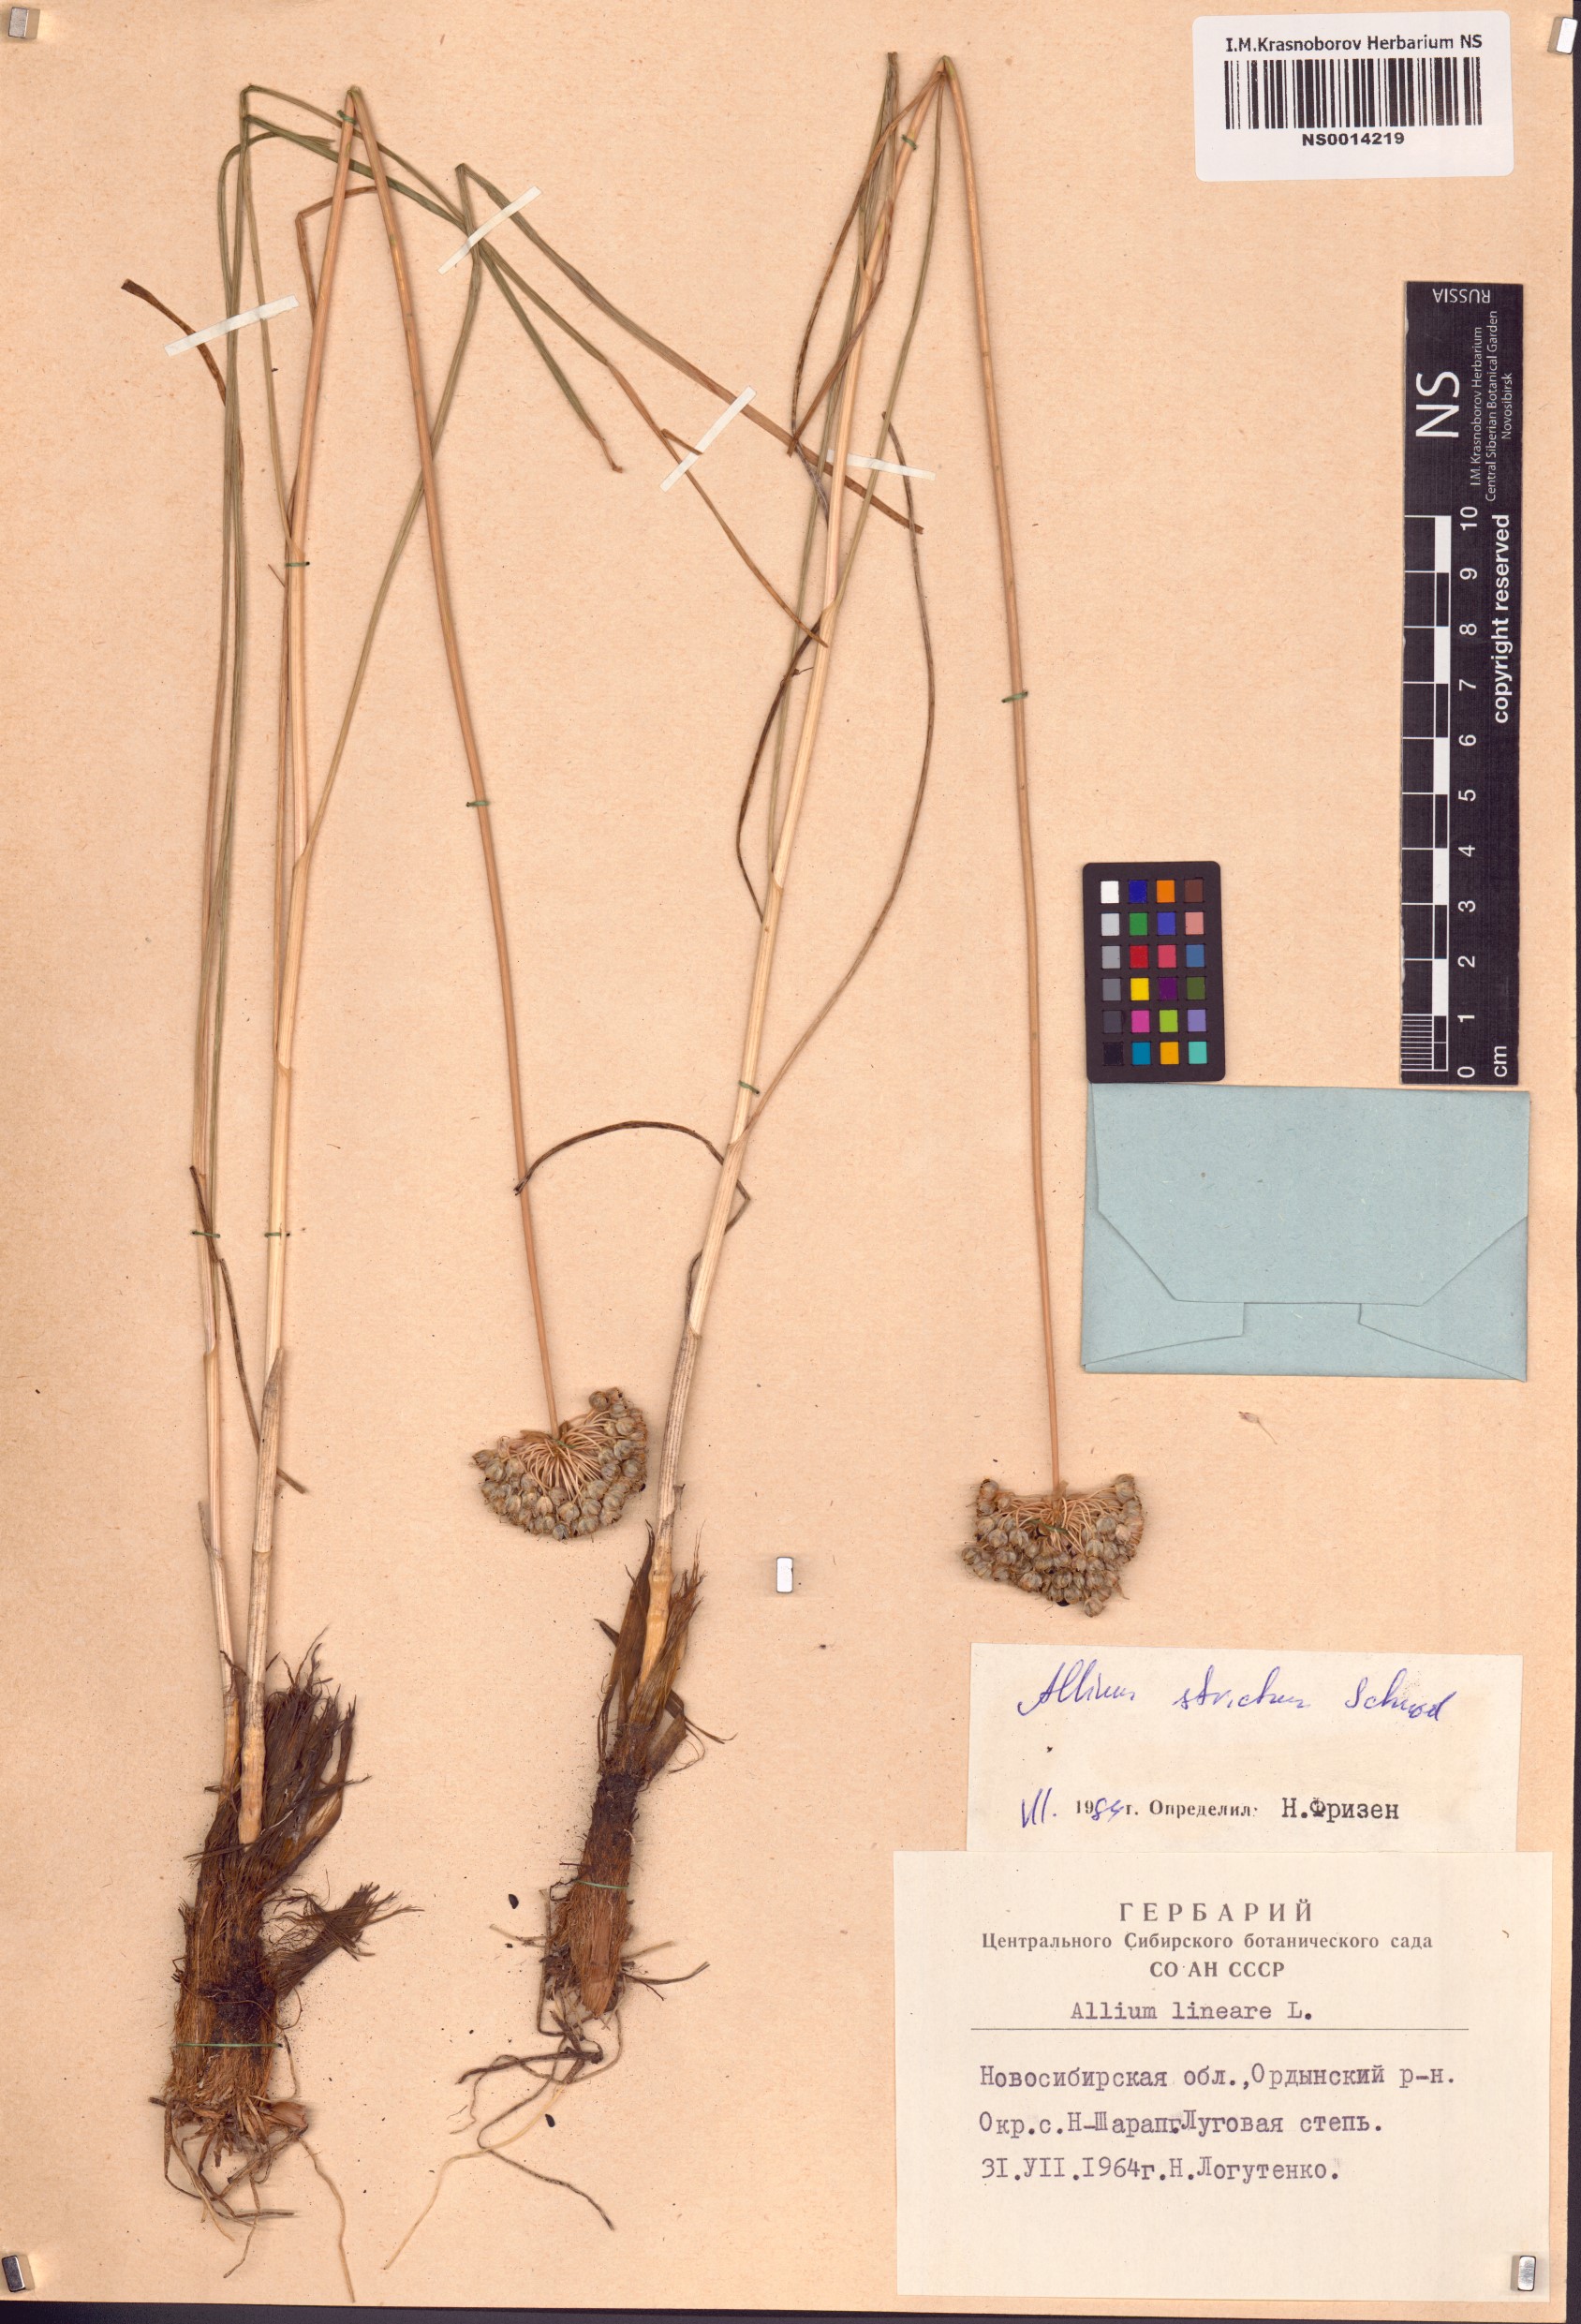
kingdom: Plantae
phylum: Tracheophyta
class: Liliopsida
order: Asparagales
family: Amaryllidaceae
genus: Allium
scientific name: Allium strictum
